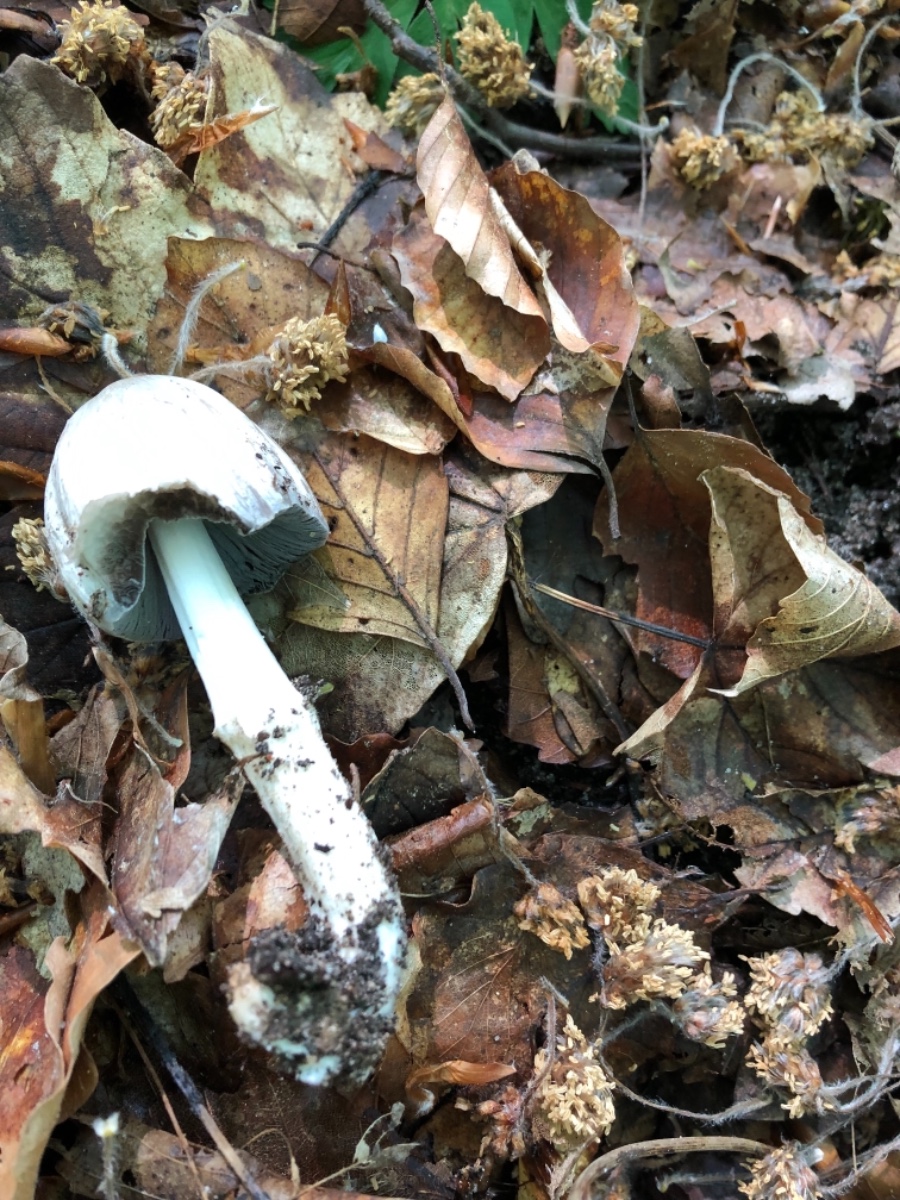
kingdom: Fungi
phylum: Basidiomycota
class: Agaricomycetes
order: Agaricales
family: Psathyrellaceae
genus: Coprinopsis
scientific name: Coprinopsis atramentaria
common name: almindelig blækhat
